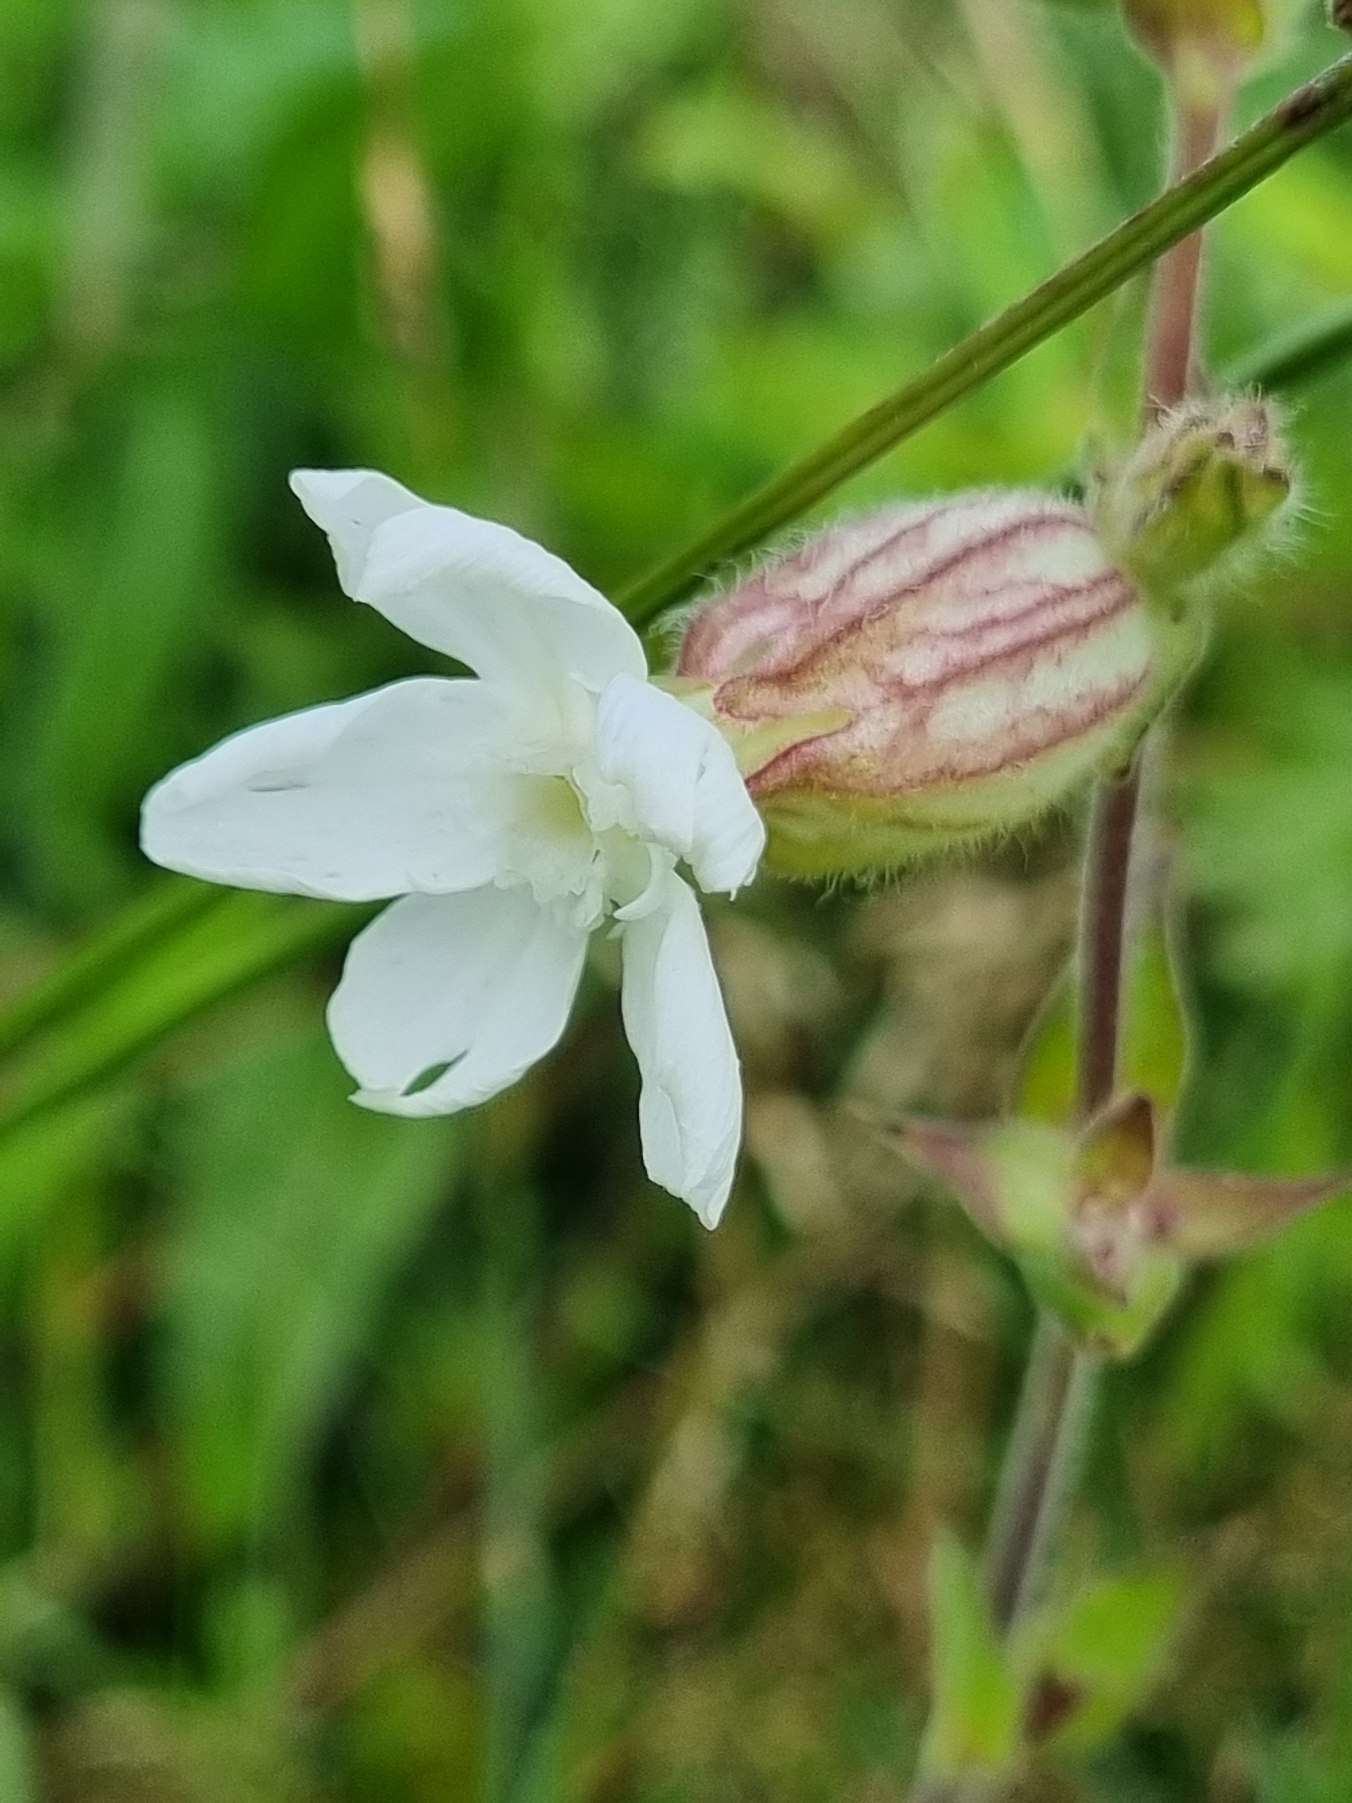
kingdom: Plantae
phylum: Tracheophyta
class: Magnoliopsida
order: Caryophyllales
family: Caryophyllaceae
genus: Silene
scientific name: Silene latifolia
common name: Aftenpragtstjerne
